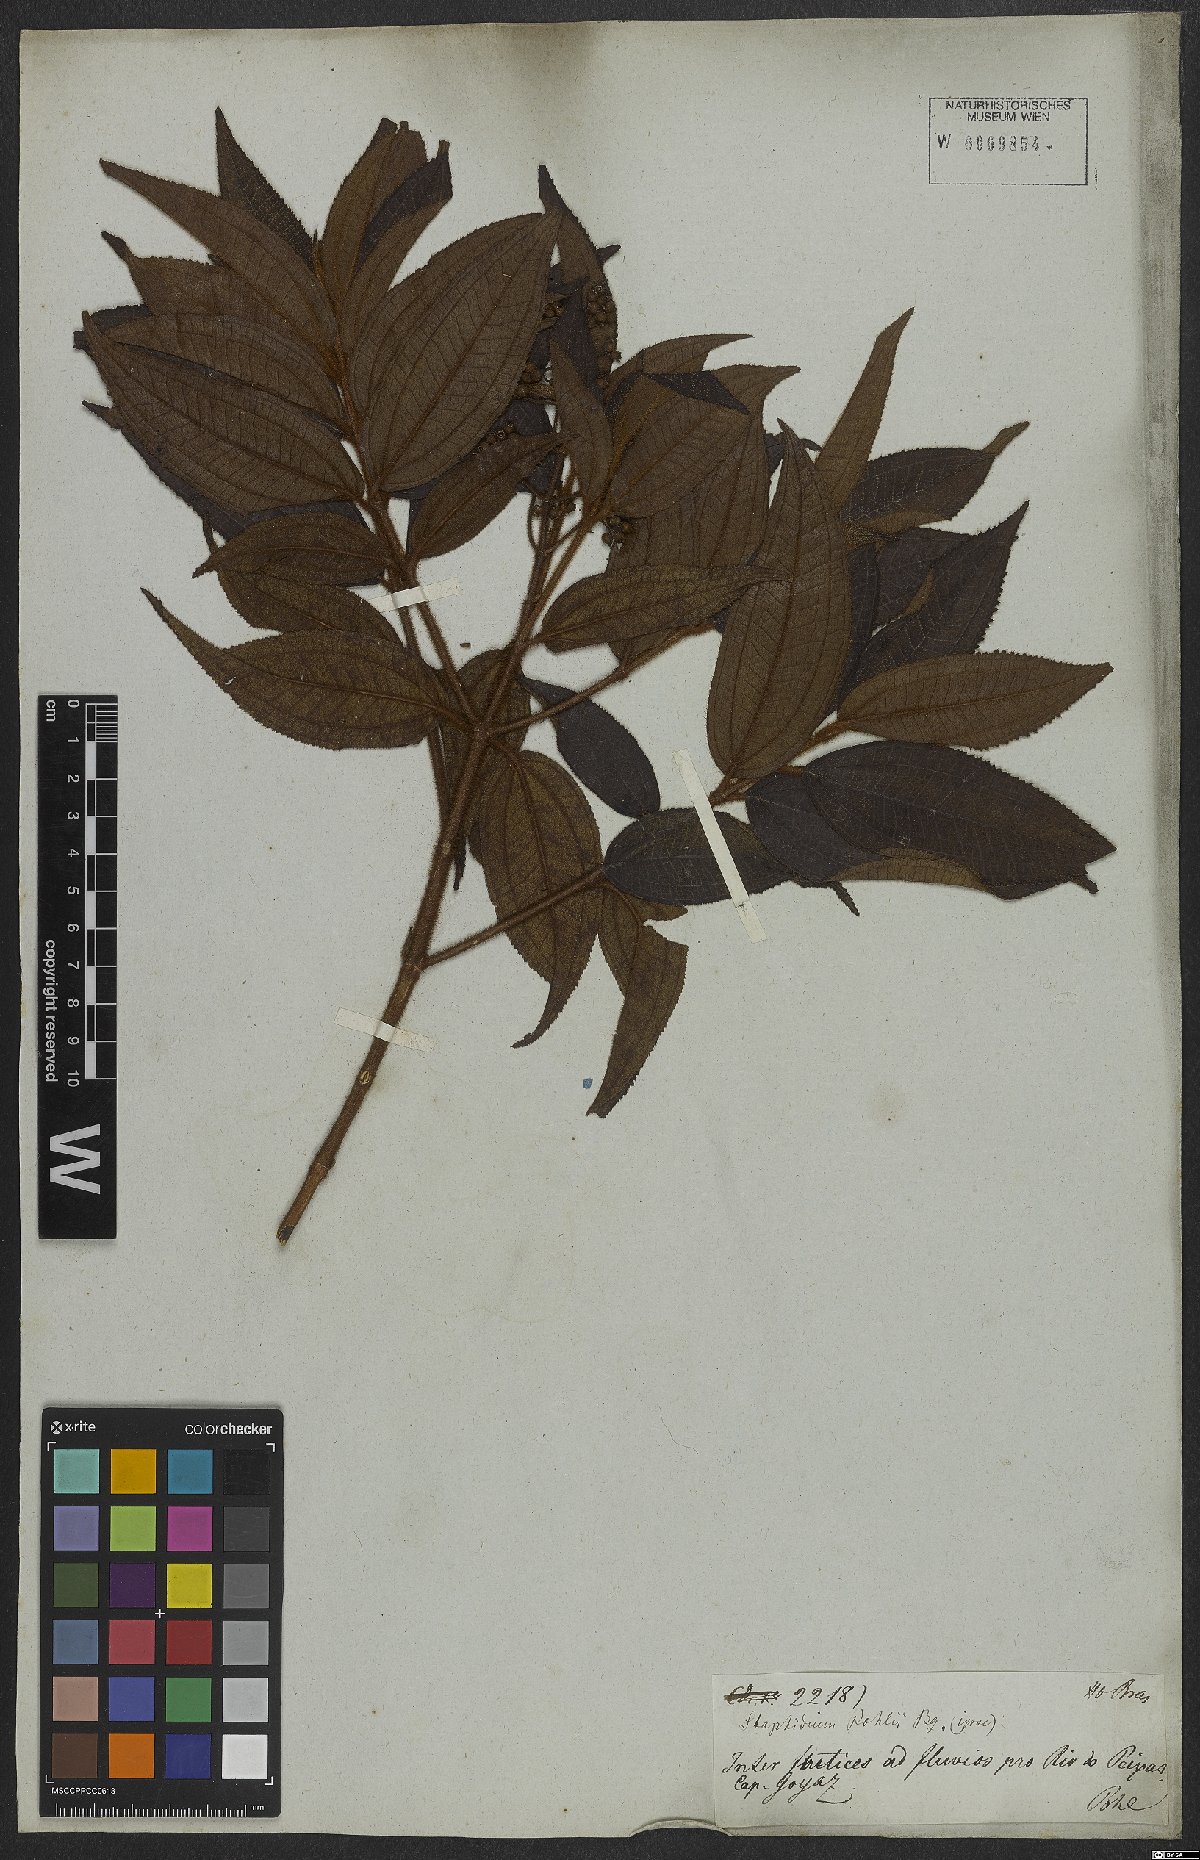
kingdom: Plantae
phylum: Tracheophyta
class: Magnoliopsida
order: Myrtales
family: Melastomataceae
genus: Miconia
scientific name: Miconia ibaguensis
